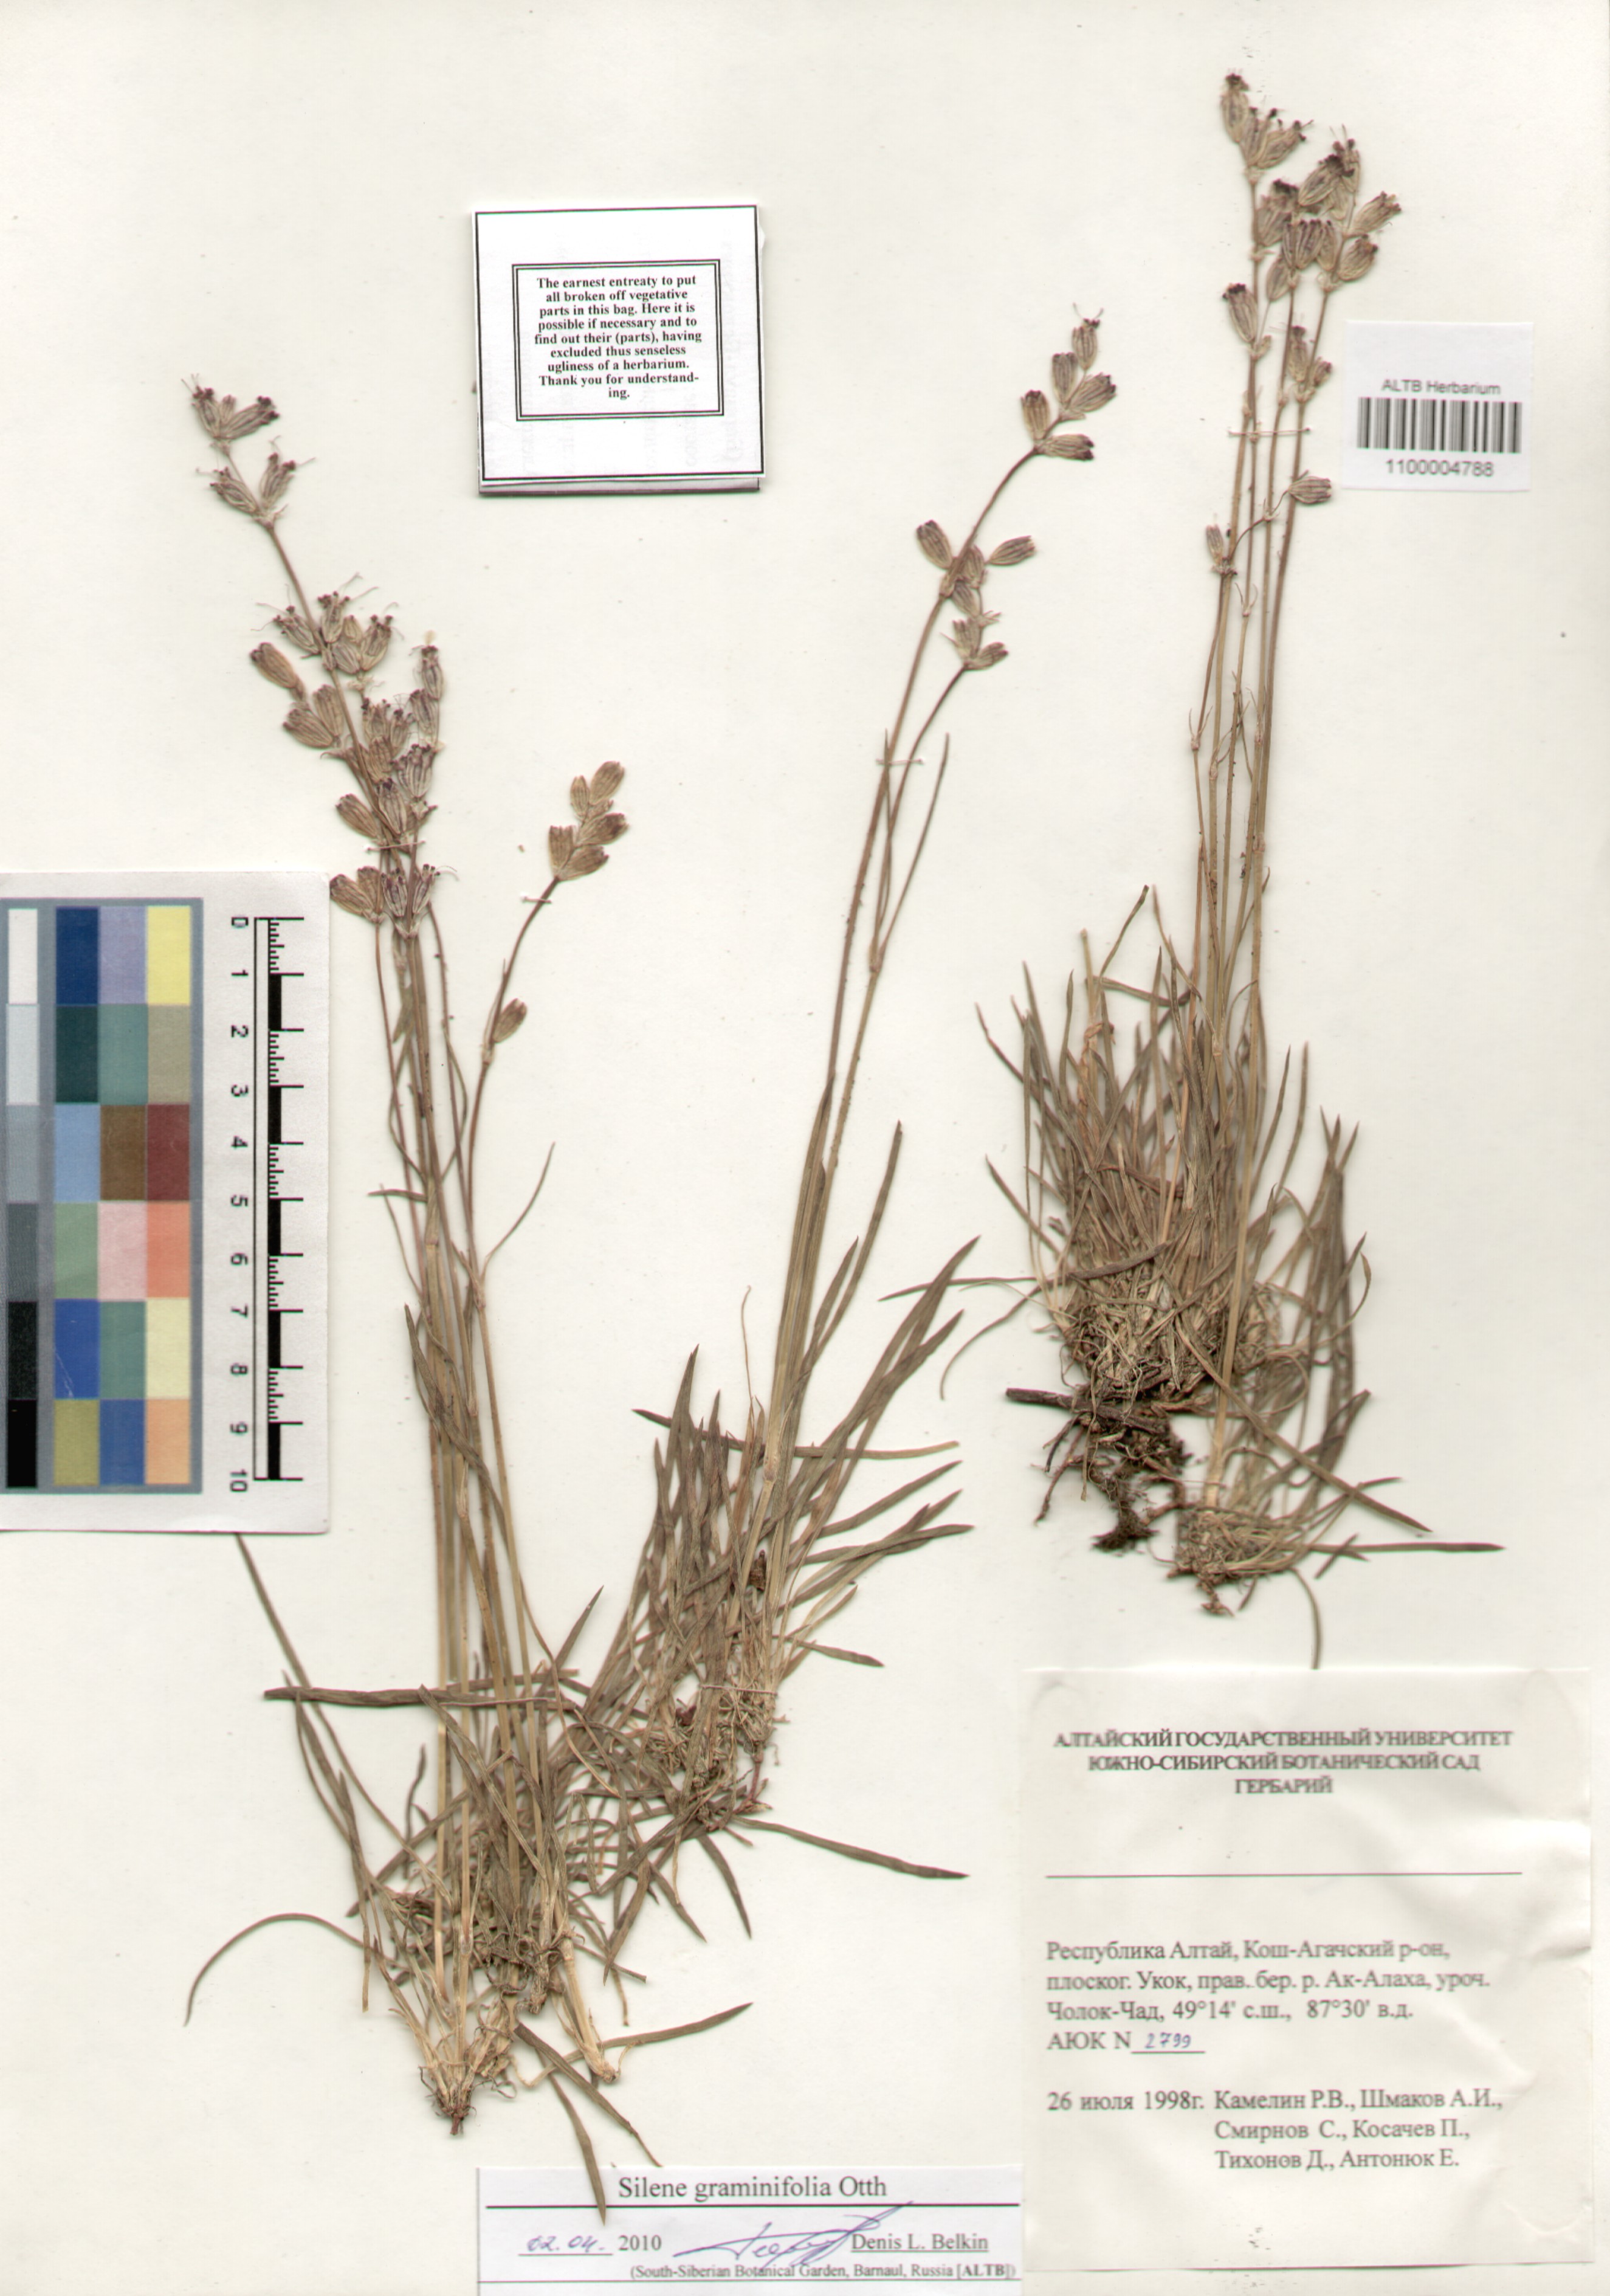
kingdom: Plantae
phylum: Tracheophyta
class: Magnoliopsida
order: Caryophyllales
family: Caryophyllaceae
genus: Silene
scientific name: Silene graminifolia
